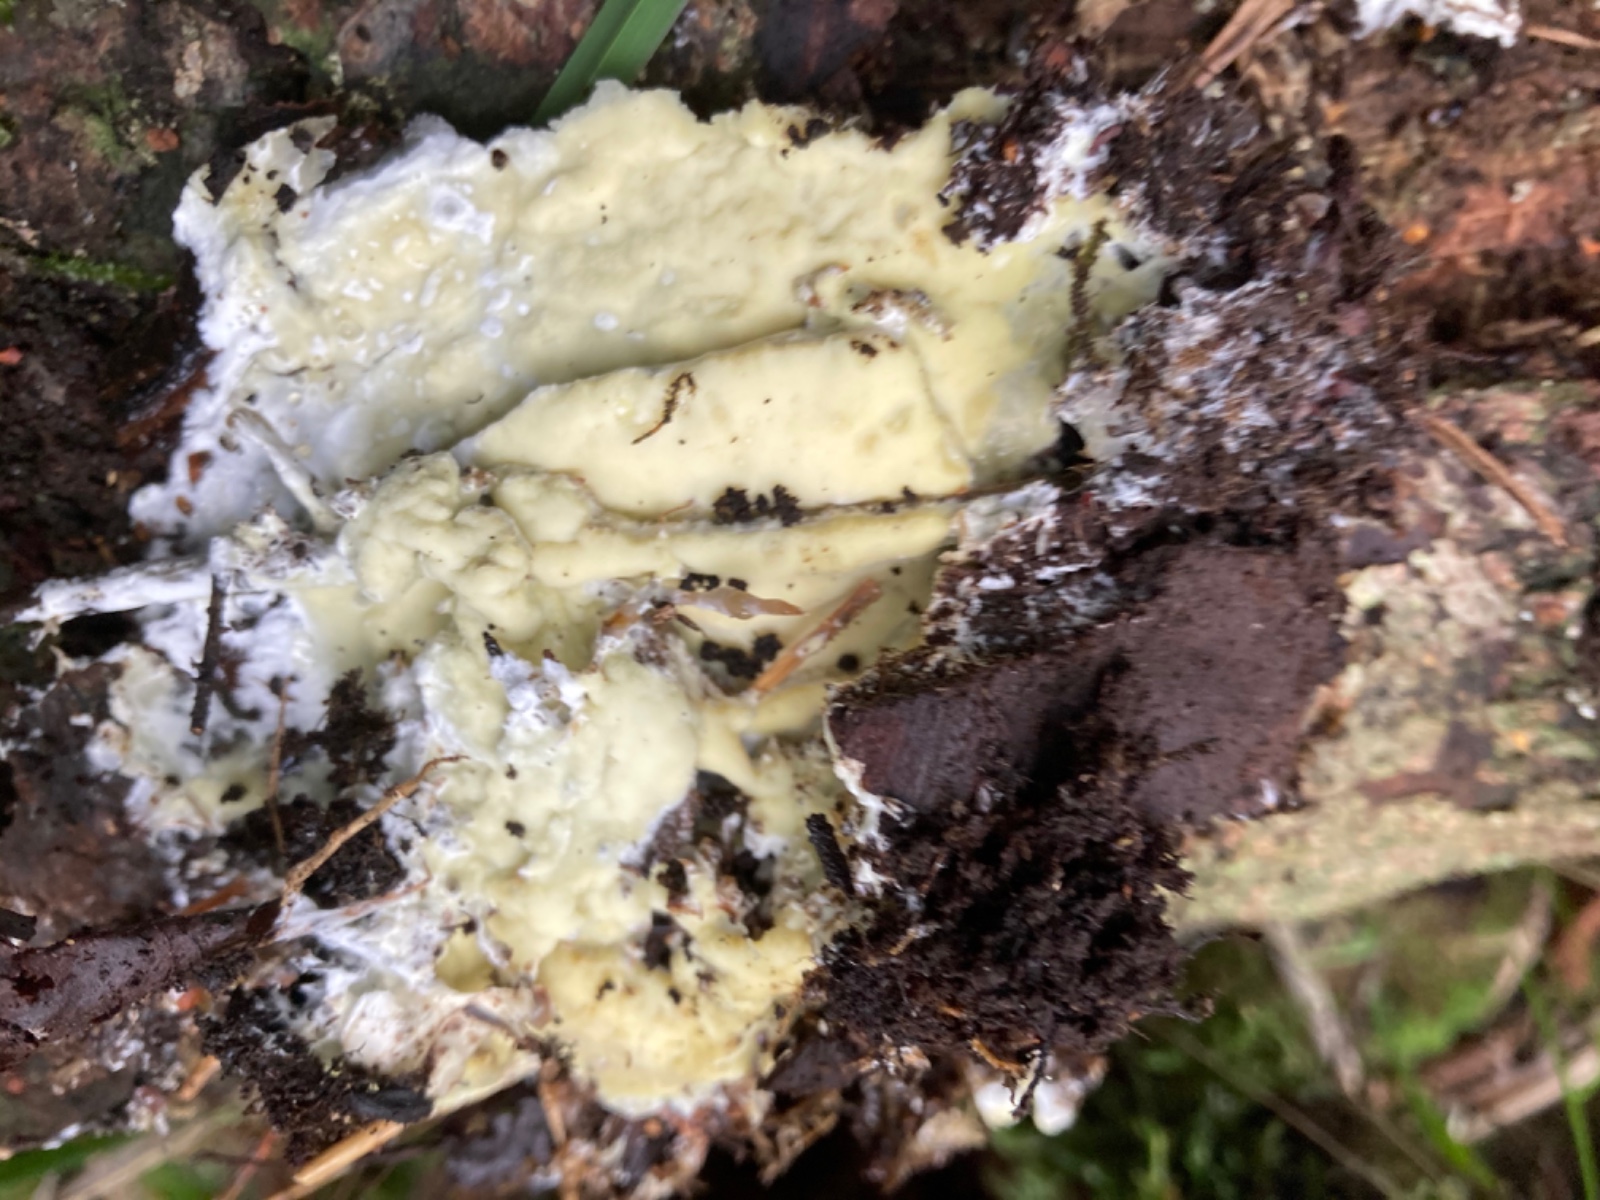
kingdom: Fungi
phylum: Basidiomycota
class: Agaricomycetes
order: Polyporales
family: Irpicaceae
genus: Gloeoporus
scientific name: Gloeoporus pannocinctus
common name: grøngul foldporesvamp
